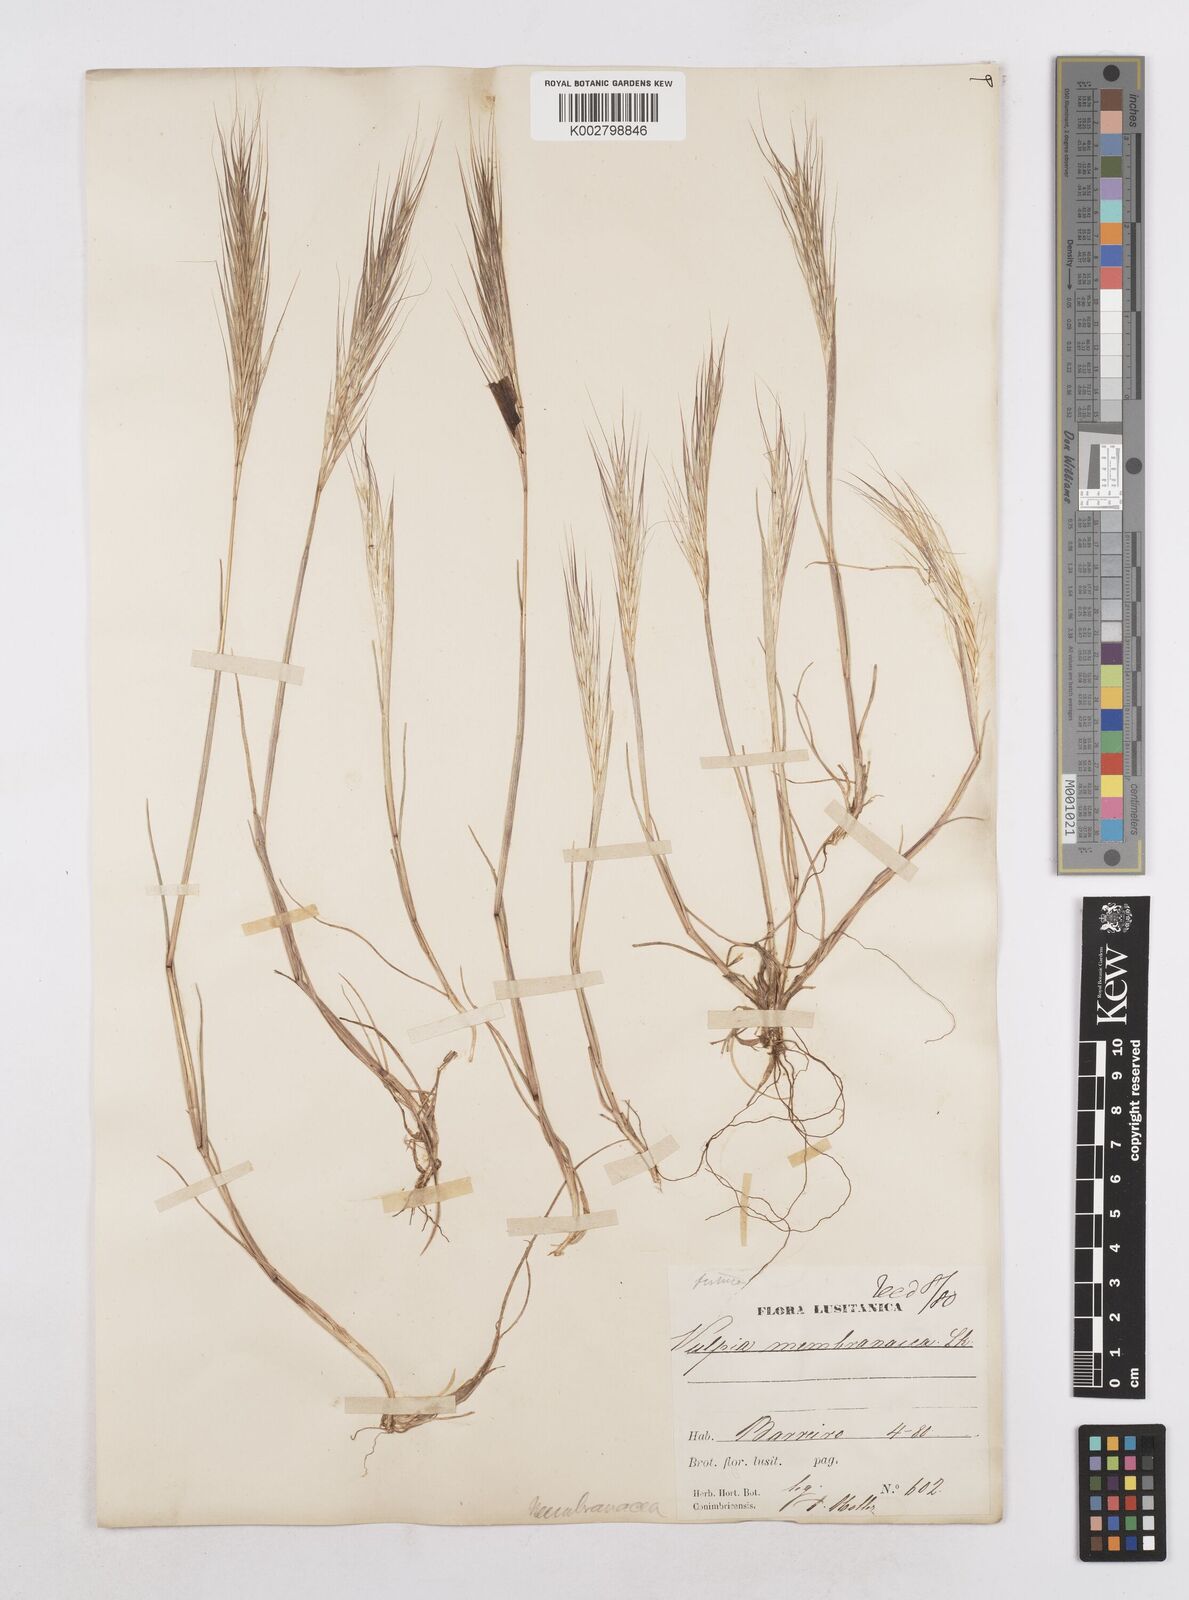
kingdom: Plantae
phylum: Tracheophyta
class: Liliopsida
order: Poales
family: Poaceae
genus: Festuca
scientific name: Festuca membranacea
